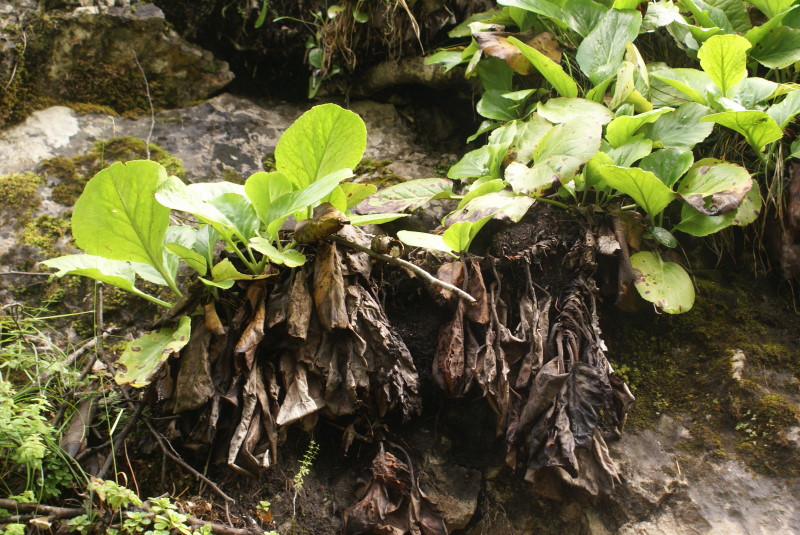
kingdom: Plantae
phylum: Tracheophyta
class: Magnoliopsida
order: Saxifragales
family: Saxifragaceae
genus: Bergenia
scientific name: Bergenia crassifolia
